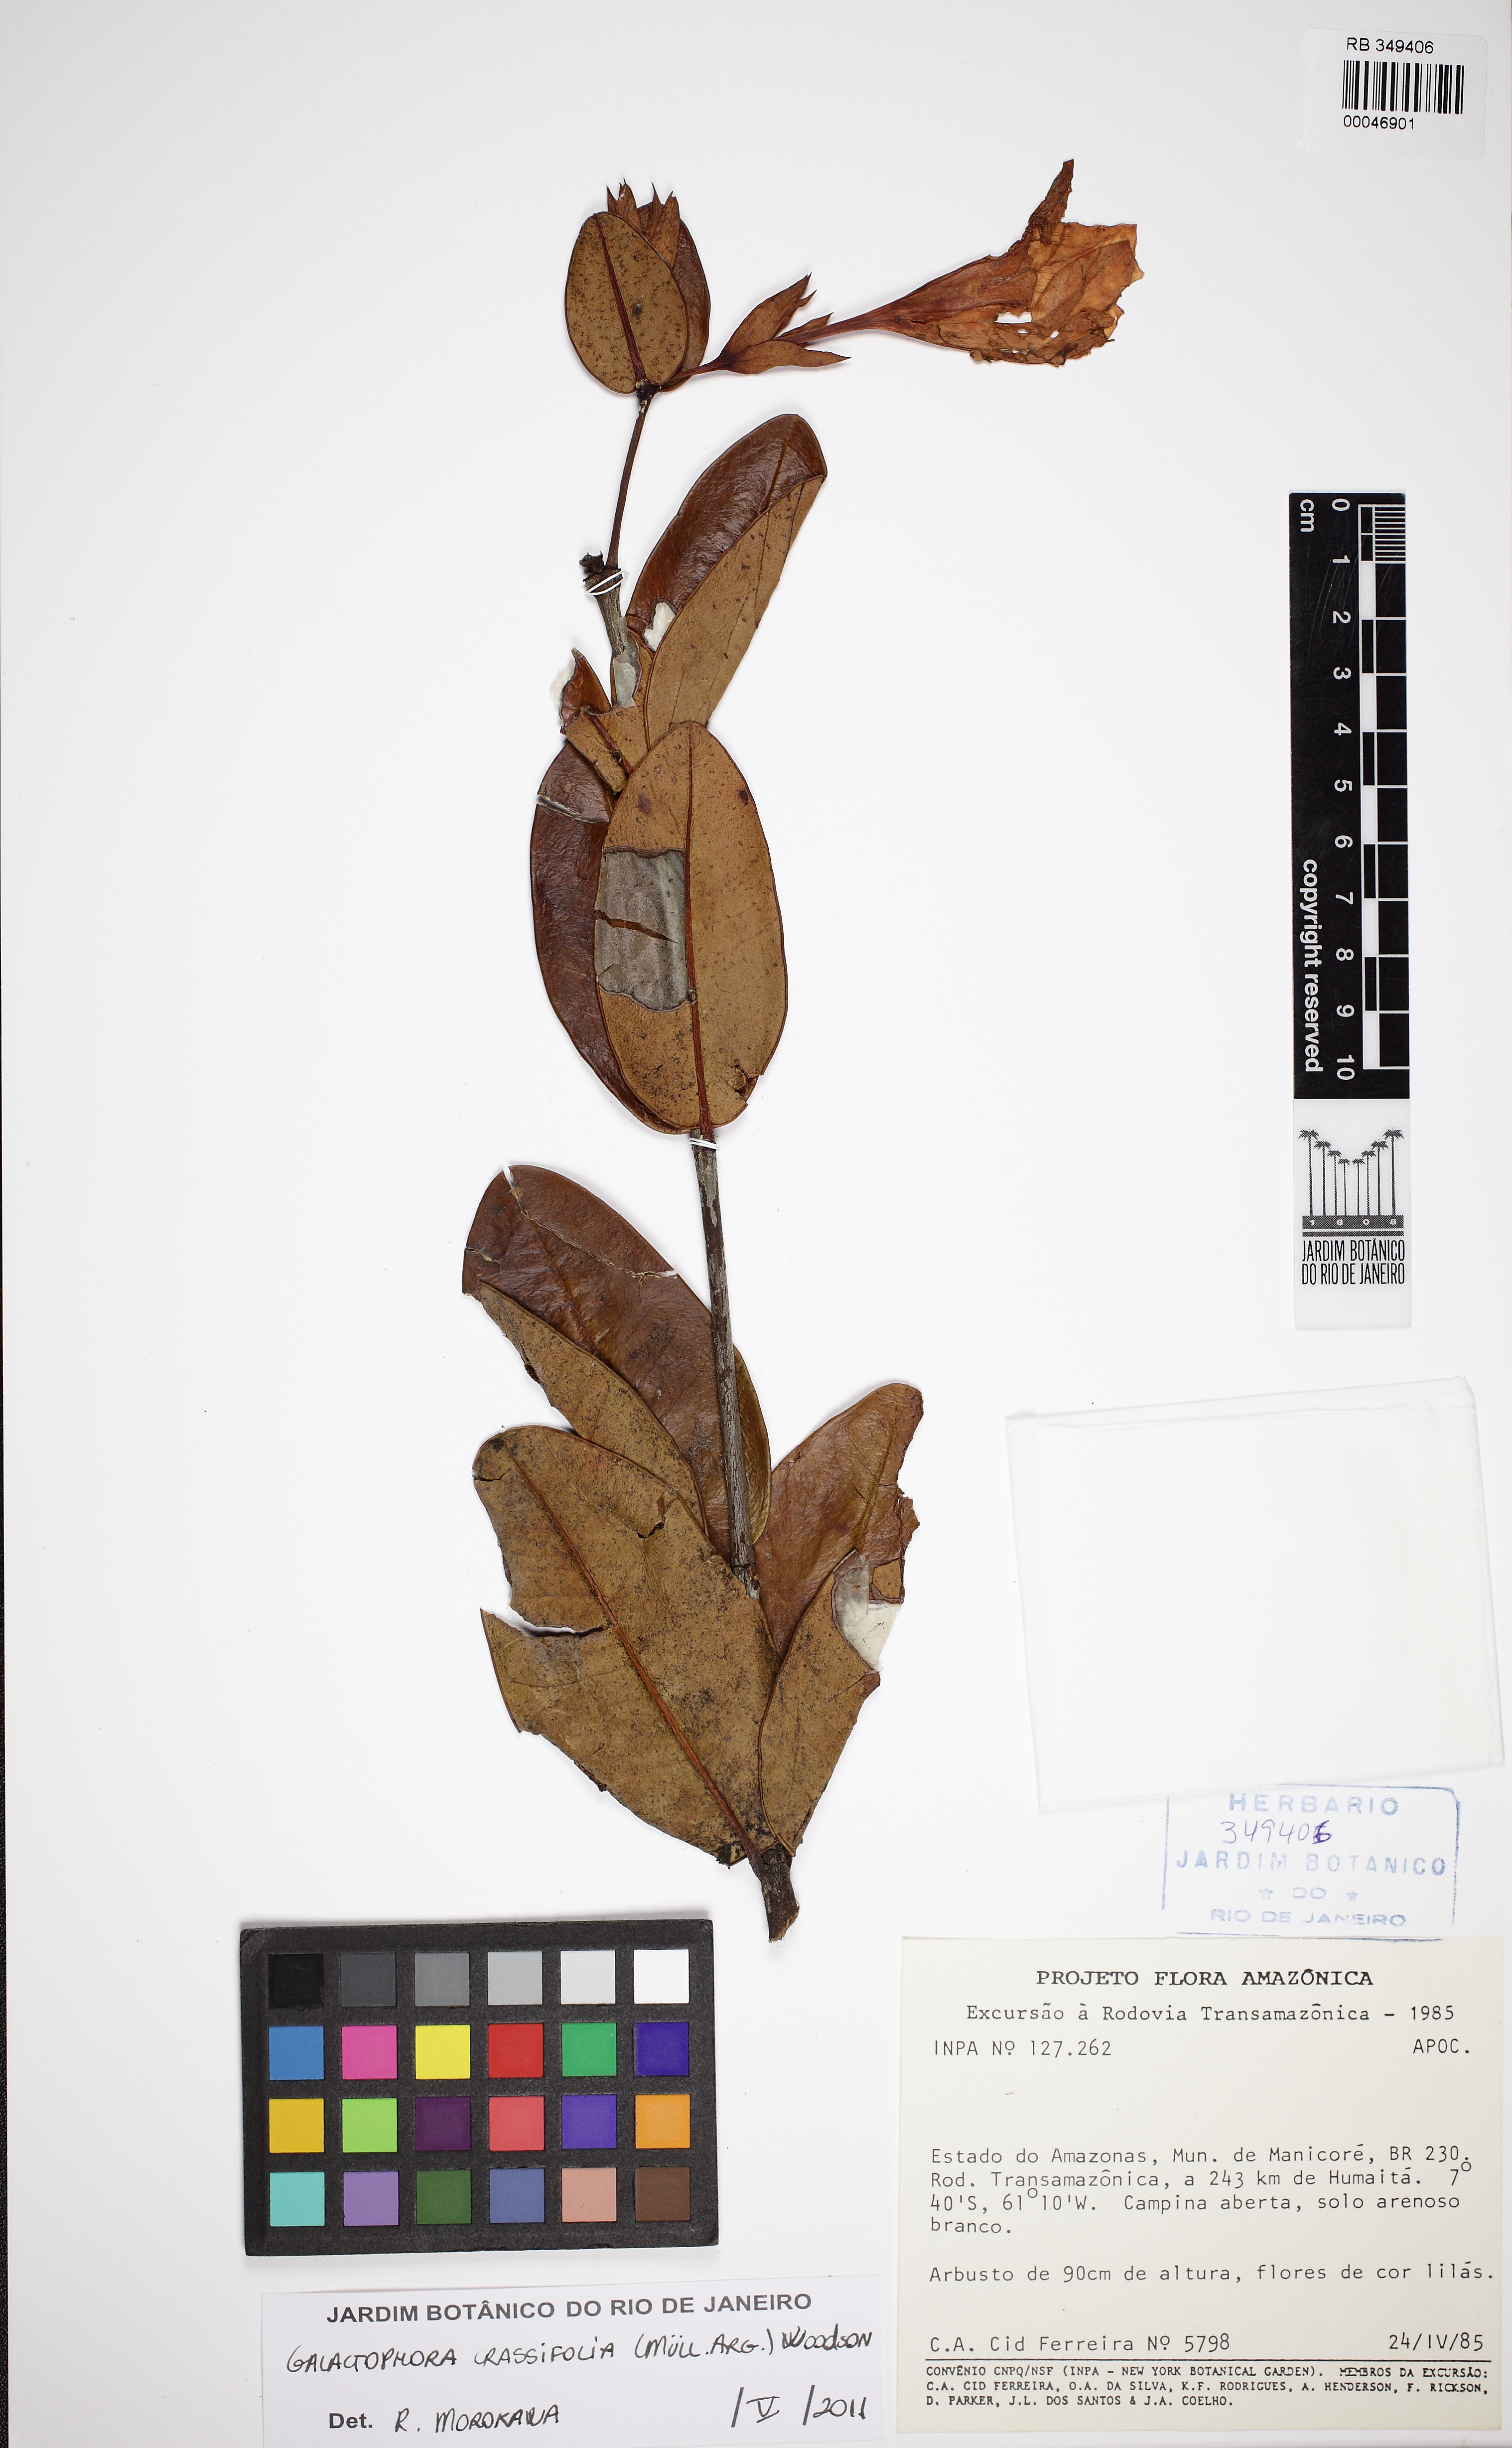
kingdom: Plantae
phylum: Tracheophyta
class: Magnoliopsida
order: Gentianales
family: Apocynaceae
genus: Galactophora
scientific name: Galactophora crassifolia
